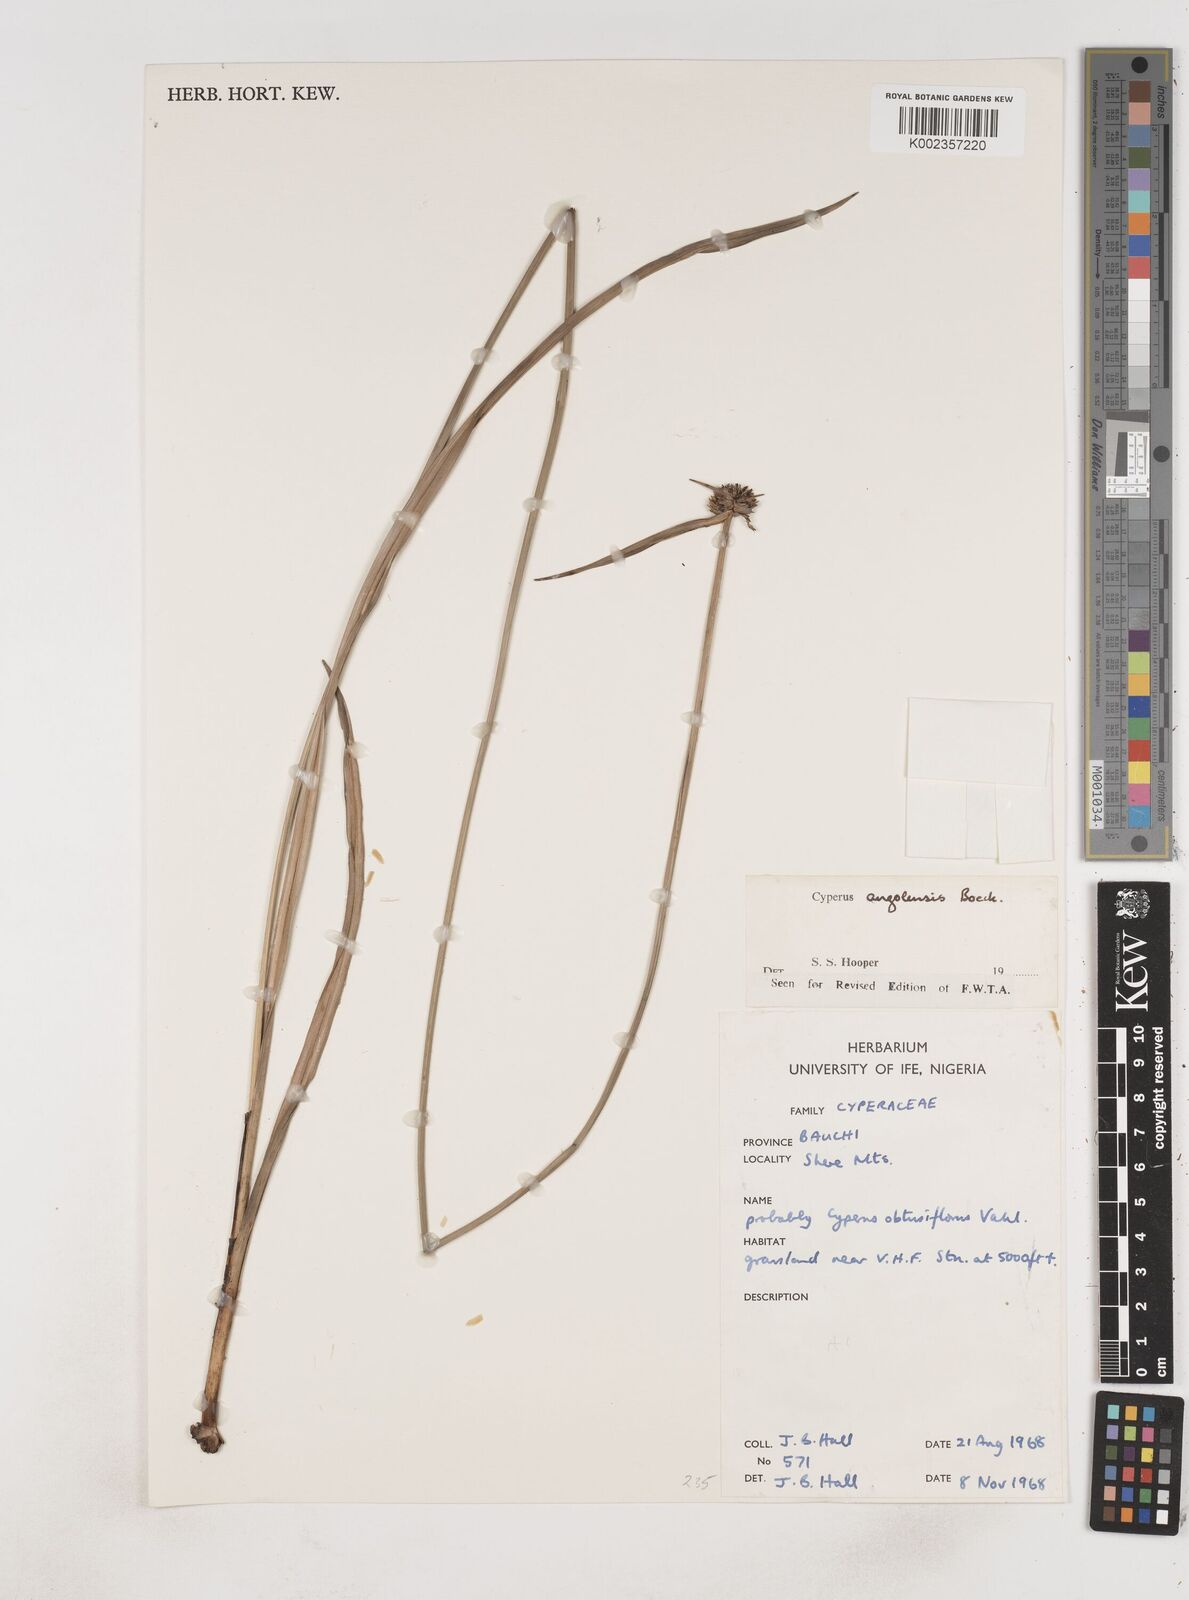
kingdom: Plantae
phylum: Tracheophyta
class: Liliopsida
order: Poales
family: Cyperaceae
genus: Cyperus
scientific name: Cyperus angolensis
